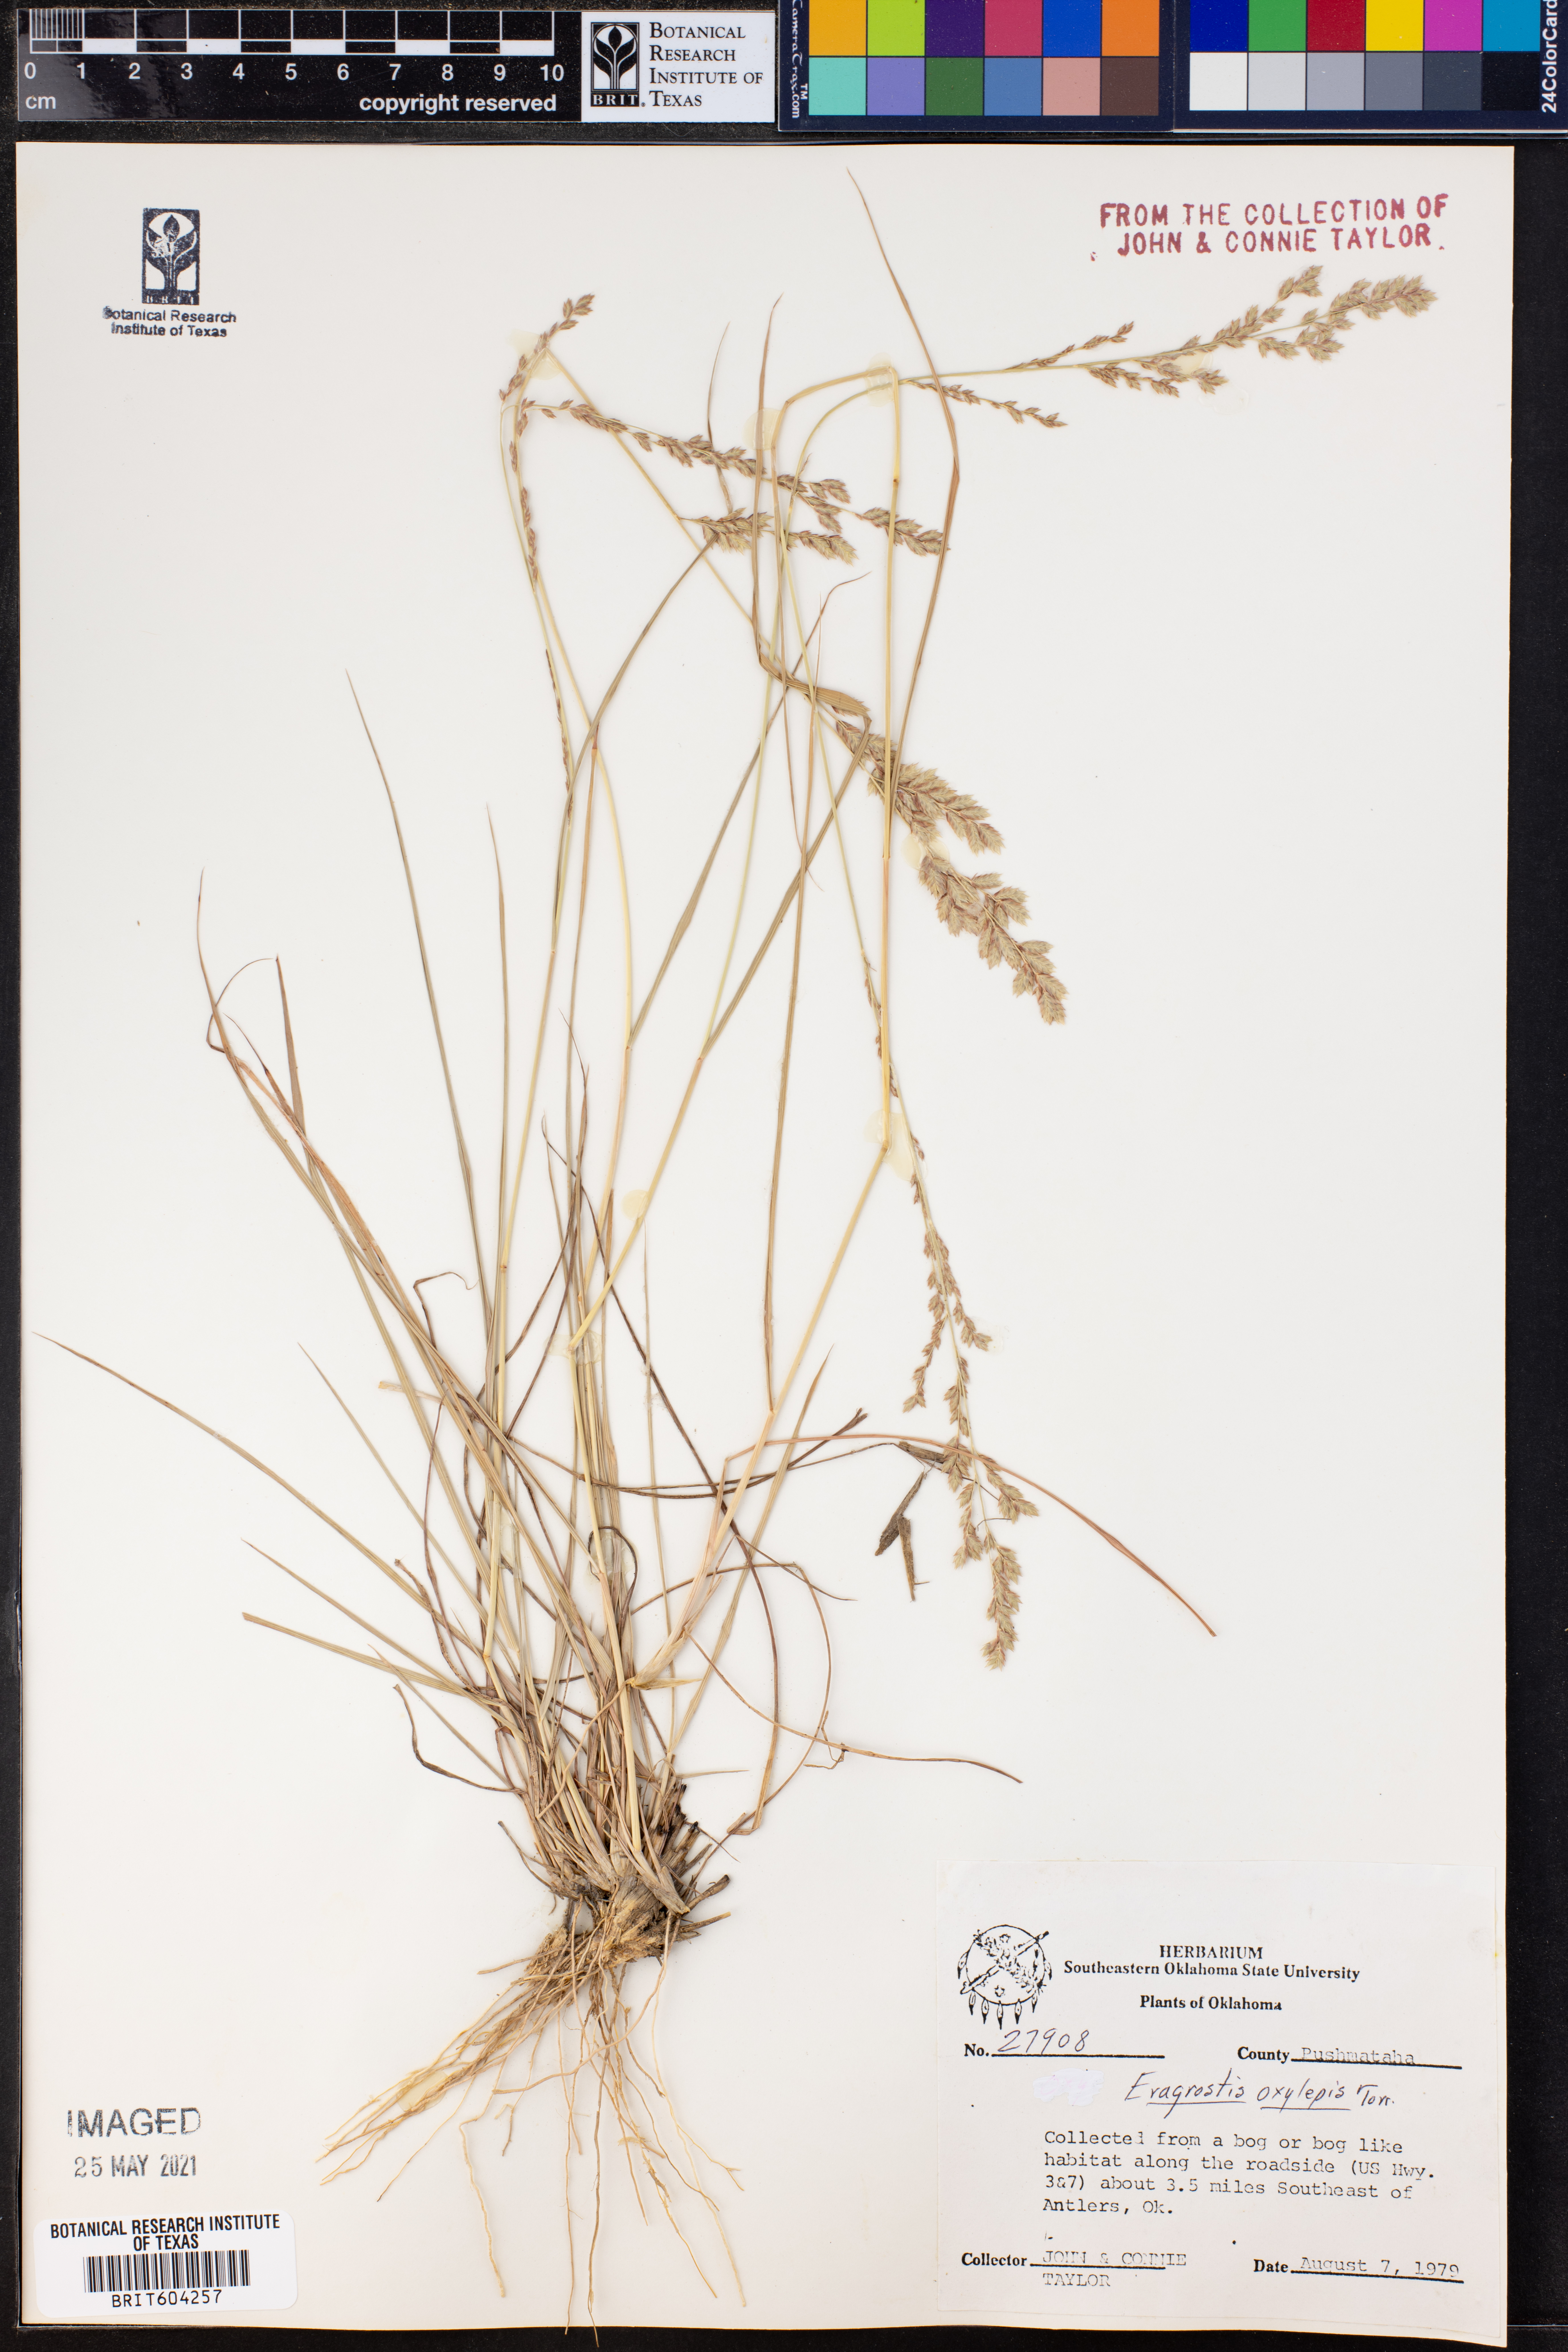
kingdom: Plantae
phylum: Tracheophyta
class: Liliopsida
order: Poales
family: Poaceae
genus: Eragrostis
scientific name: Eragrostis secundiflora
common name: Red love grass
